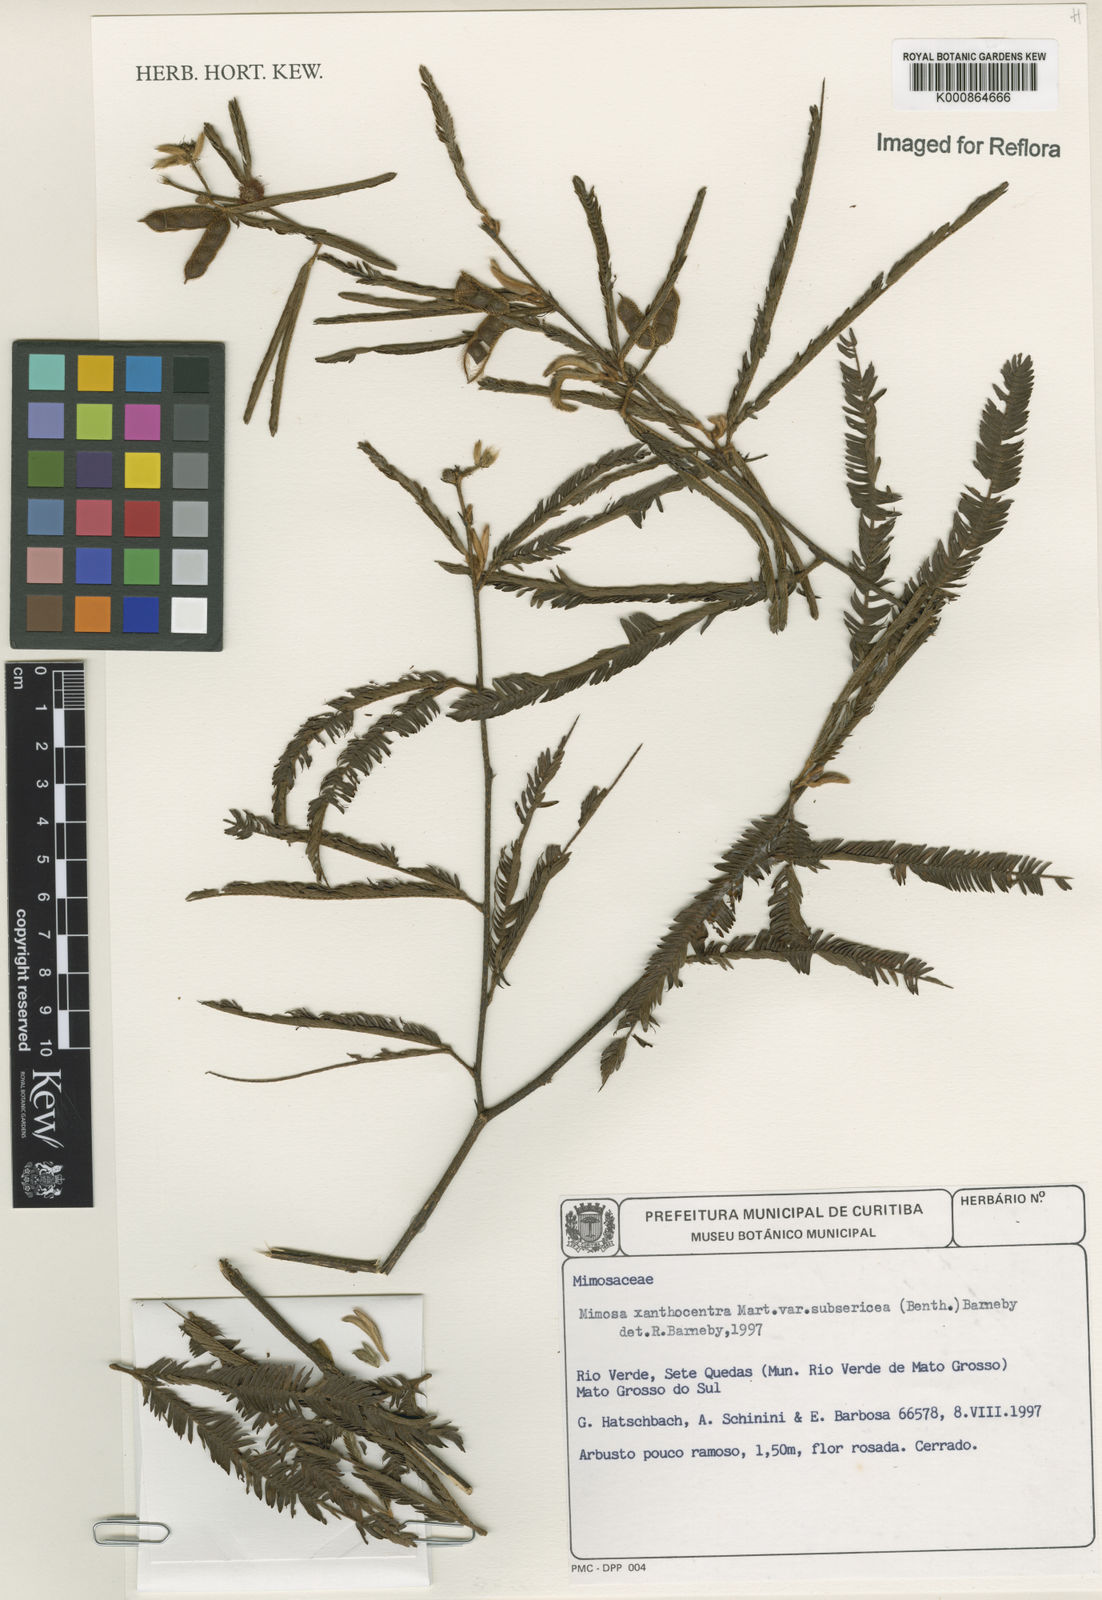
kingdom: Plantae
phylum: Tracheophyta
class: Magnoliopsida
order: Fabales
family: Fabaceae
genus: Mimosa
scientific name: Mimosa xanthocentra
